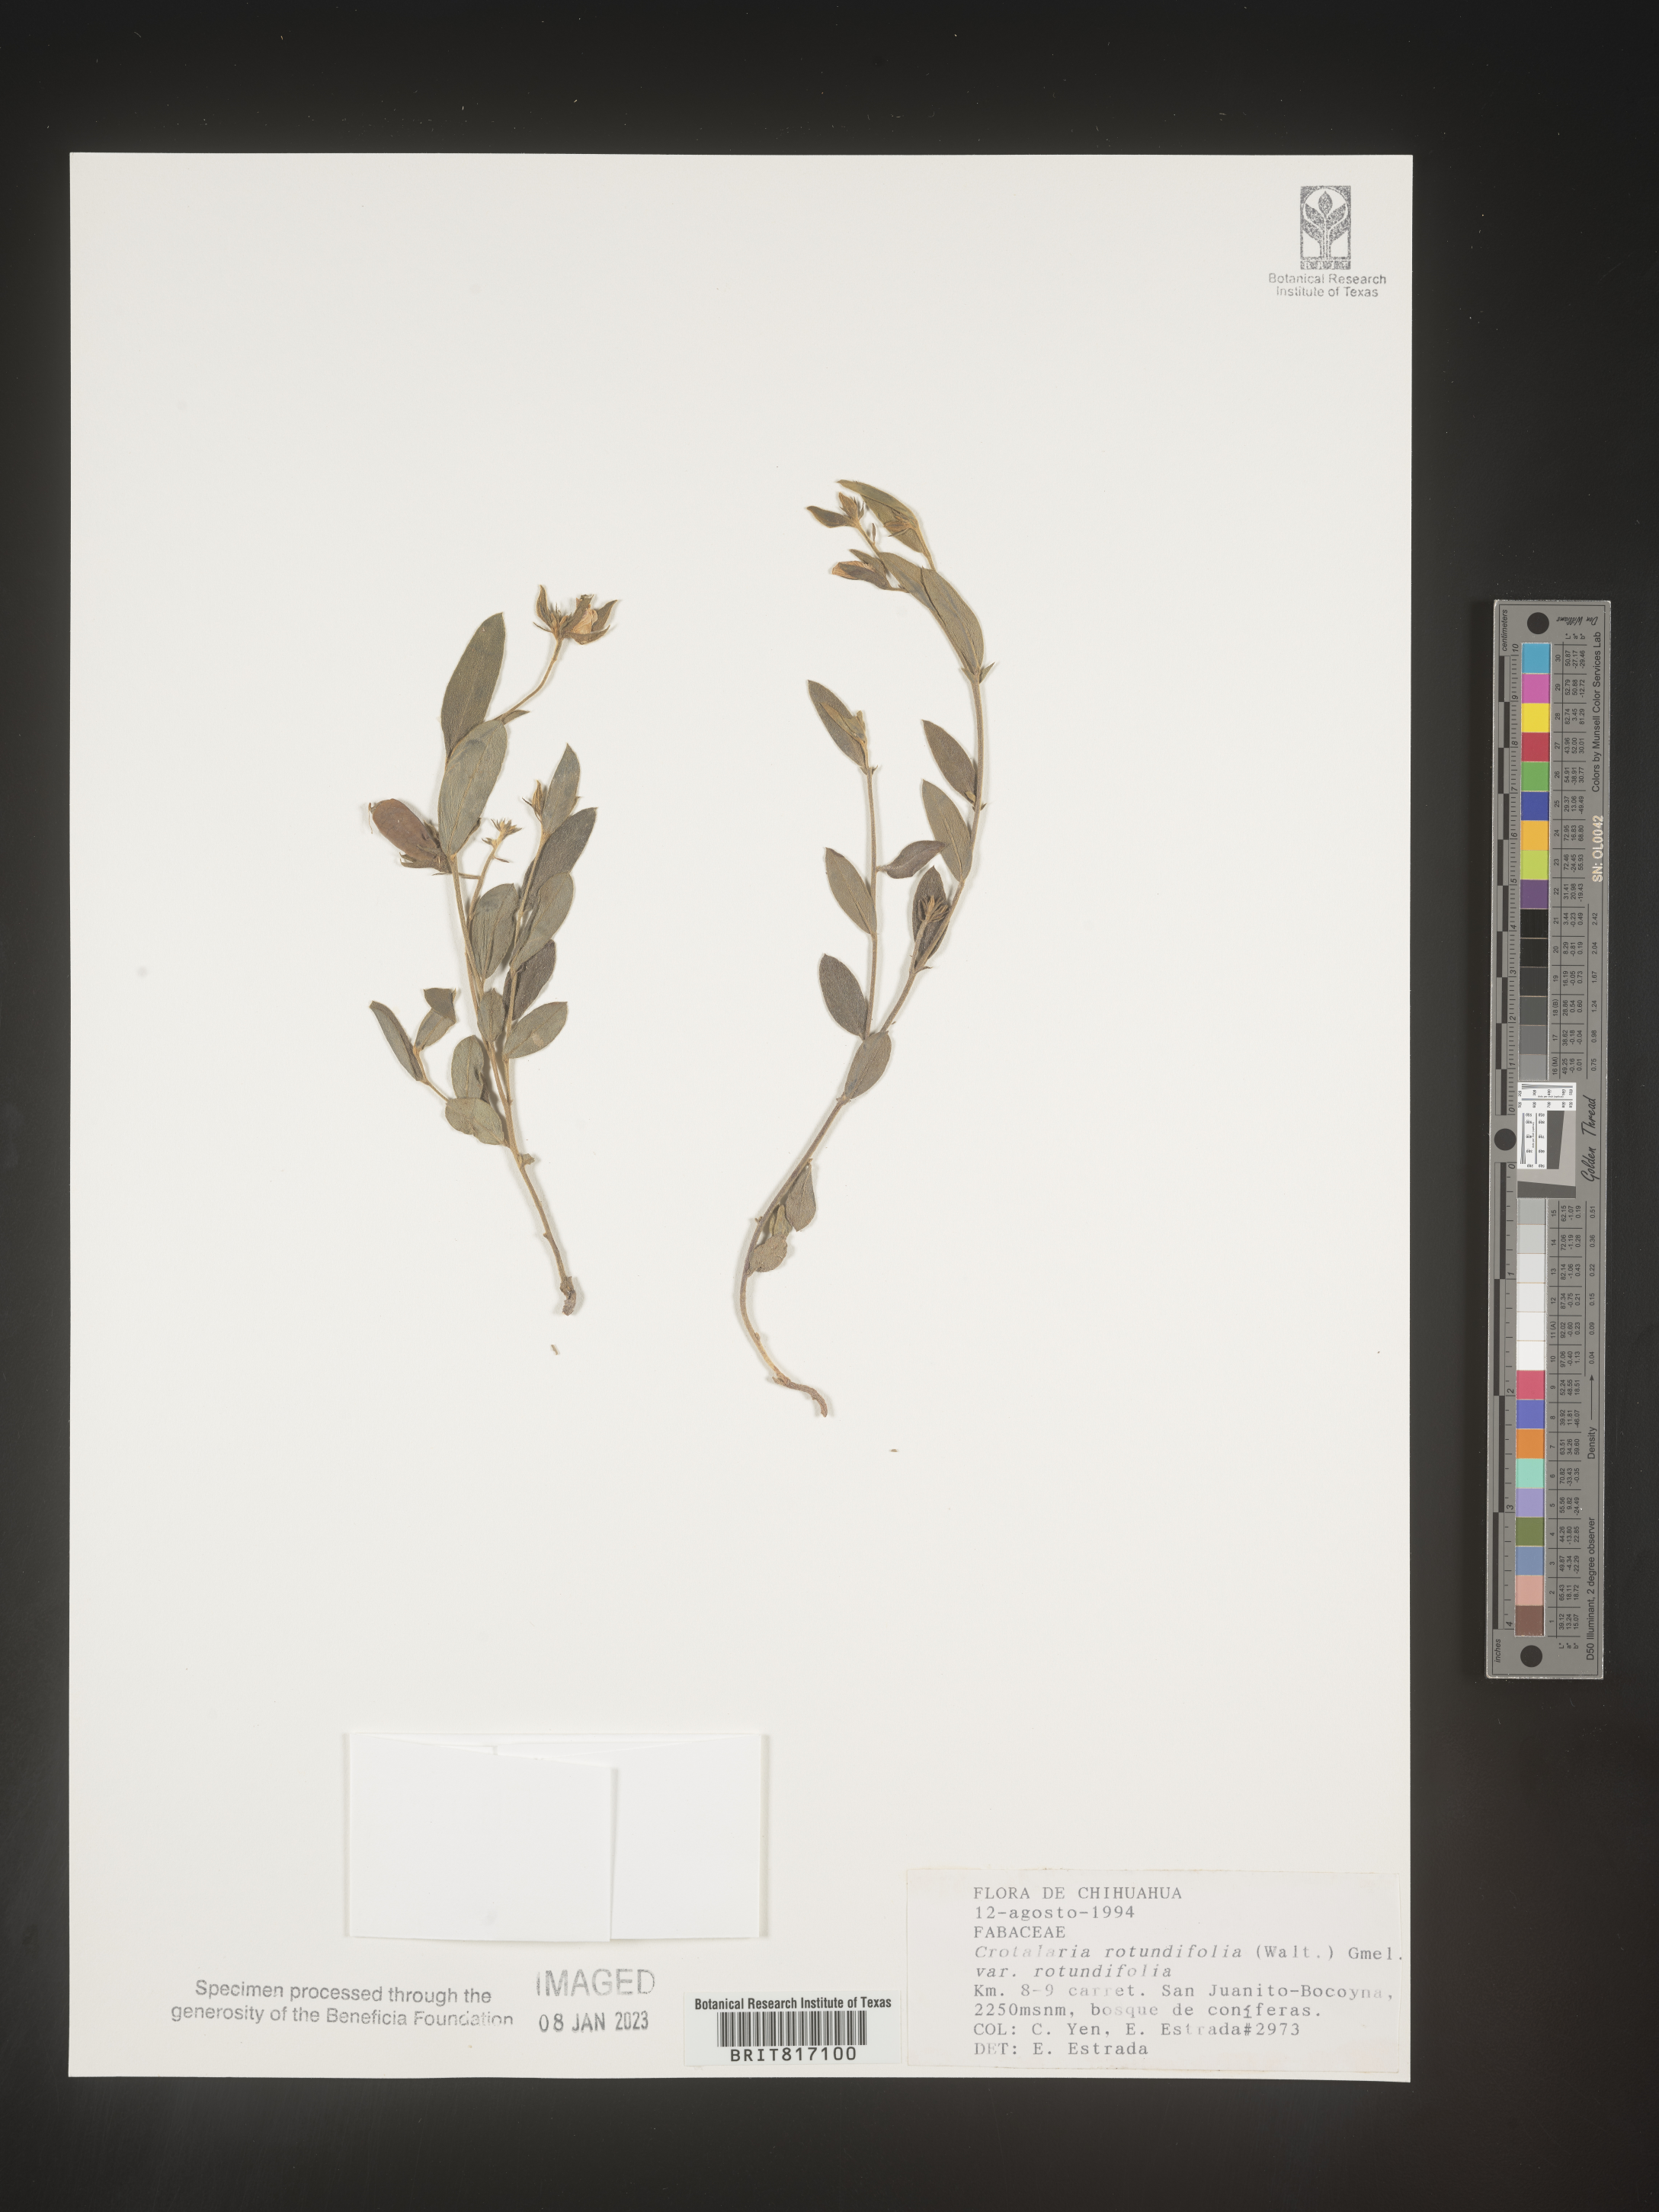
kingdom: Plantae
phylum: Tracheophyta
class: Magnoliopsida
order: Fabales
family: Fabaceae
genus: Crotalaria
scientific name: Crotalaria
